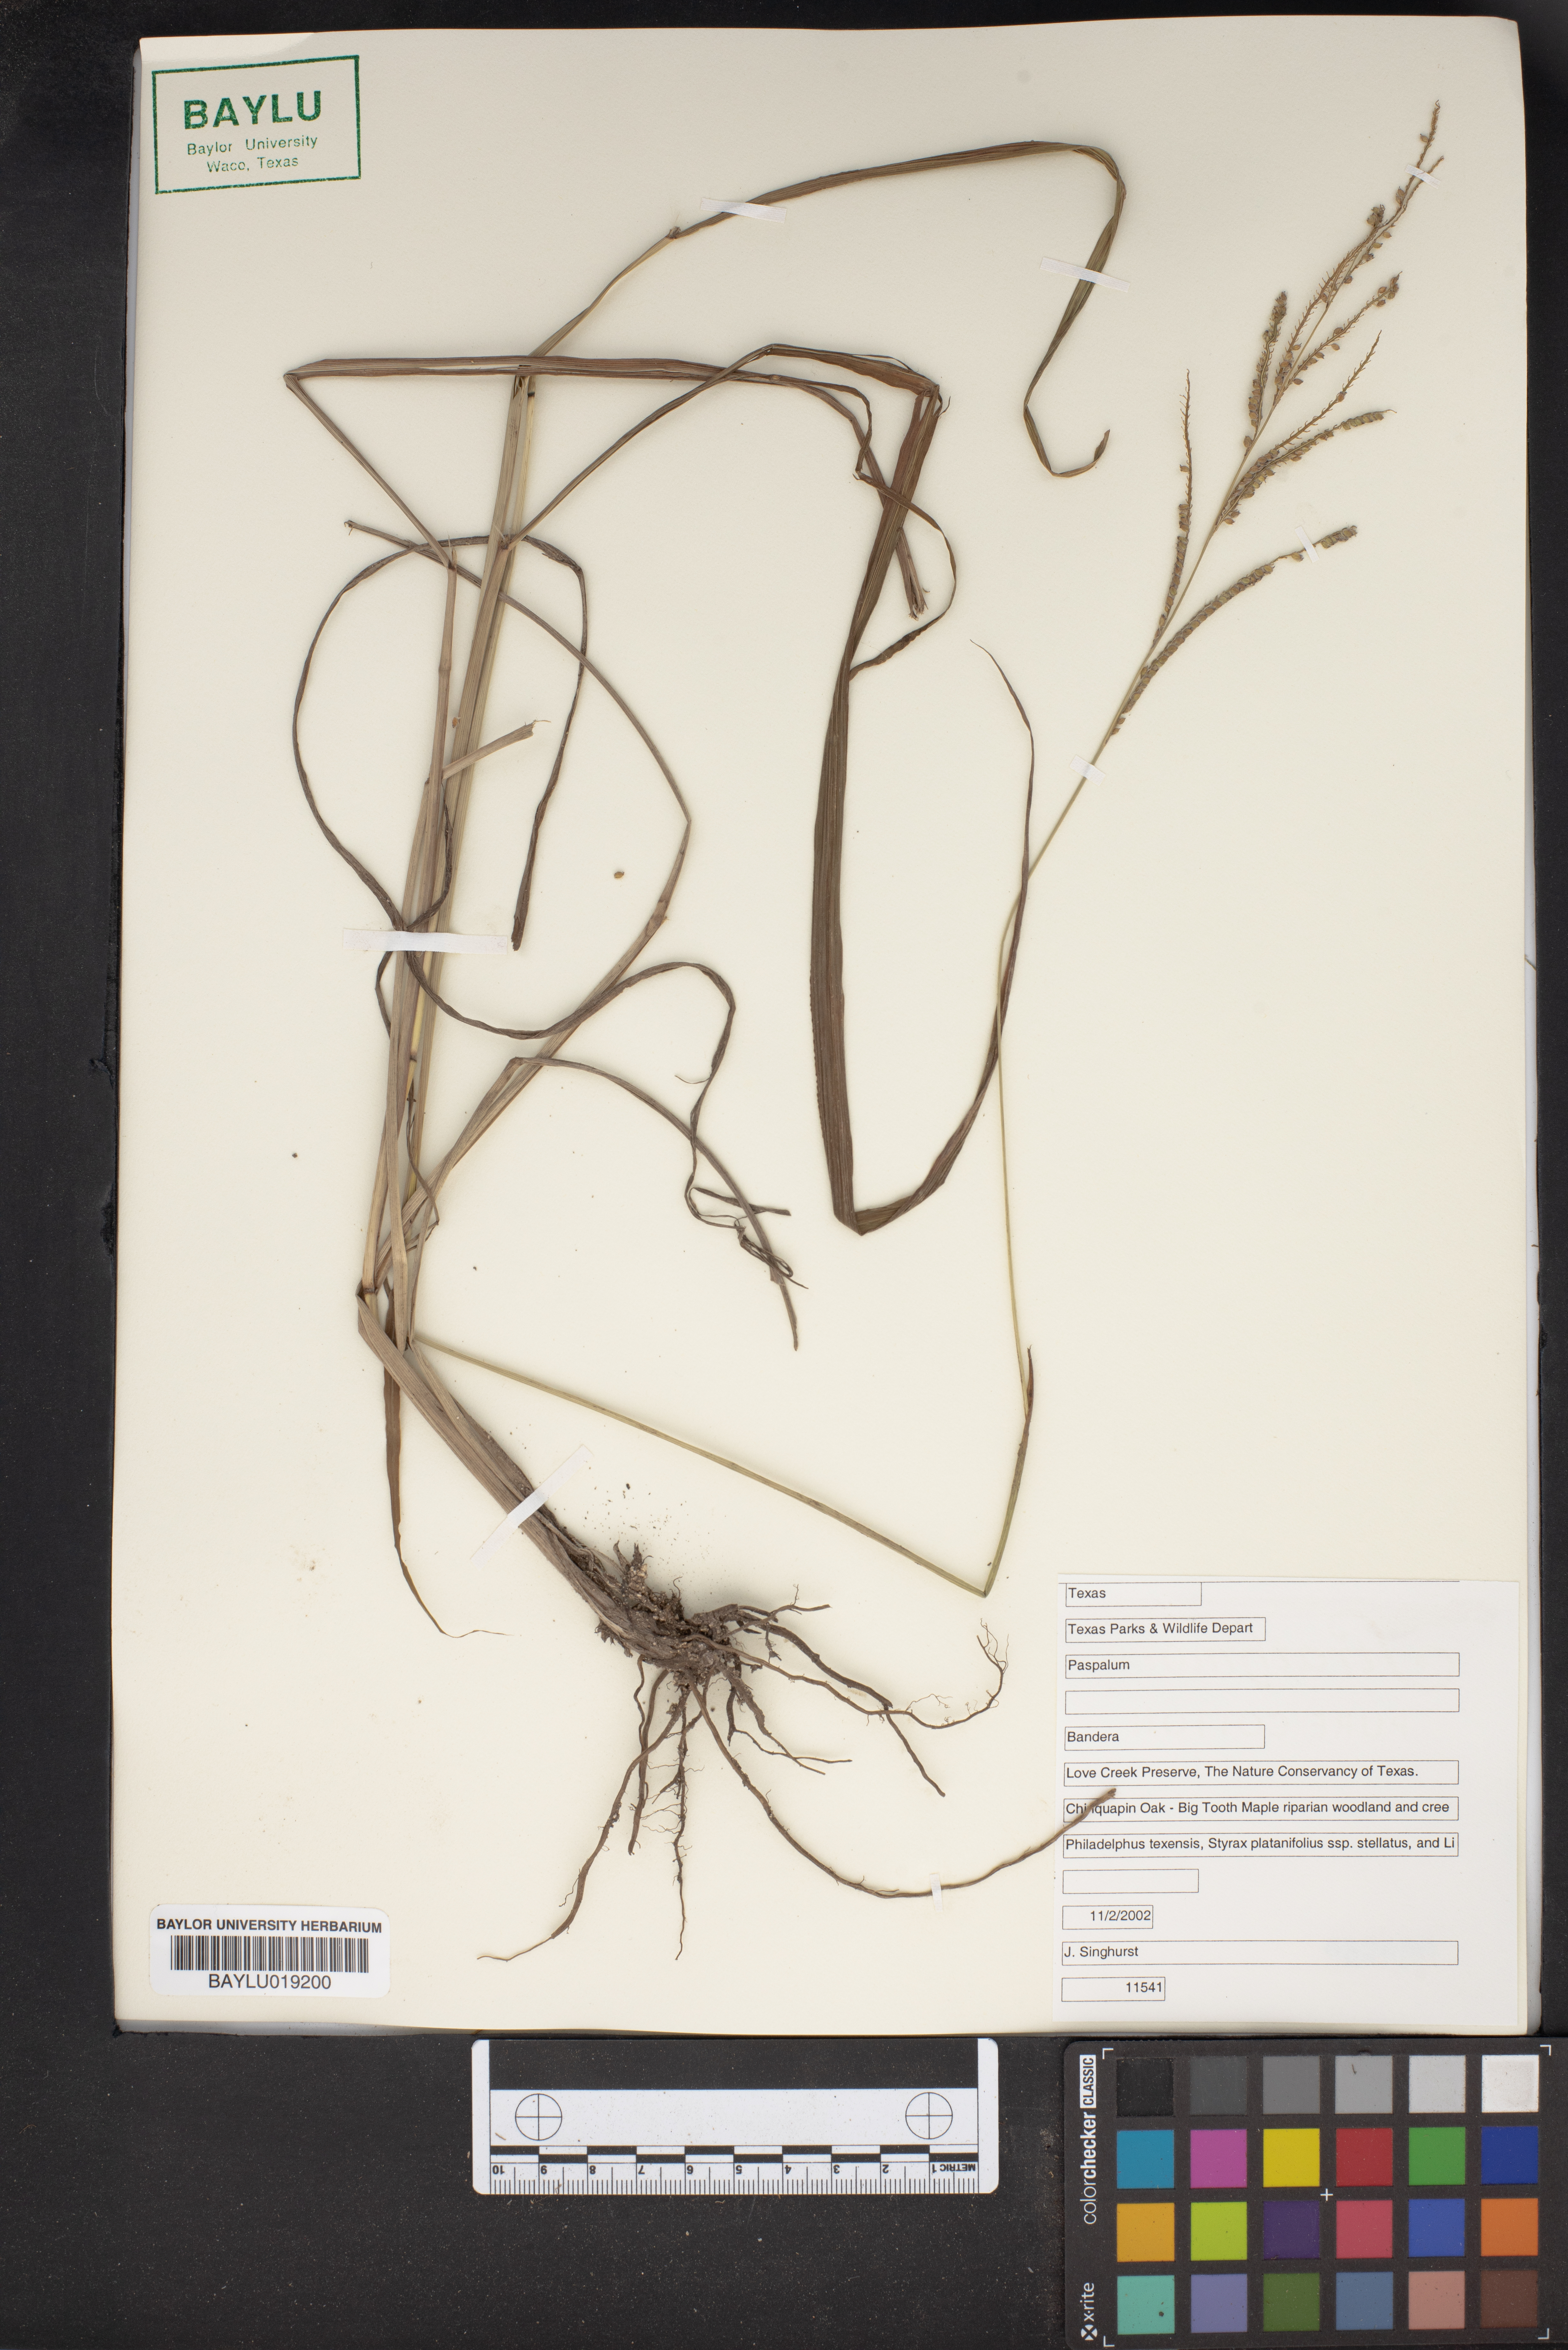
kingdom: Plantae
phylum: Tracheophyta
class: Liliopsida
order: Poales
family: Poaceae
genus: Paspalum
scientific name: Paspalum
